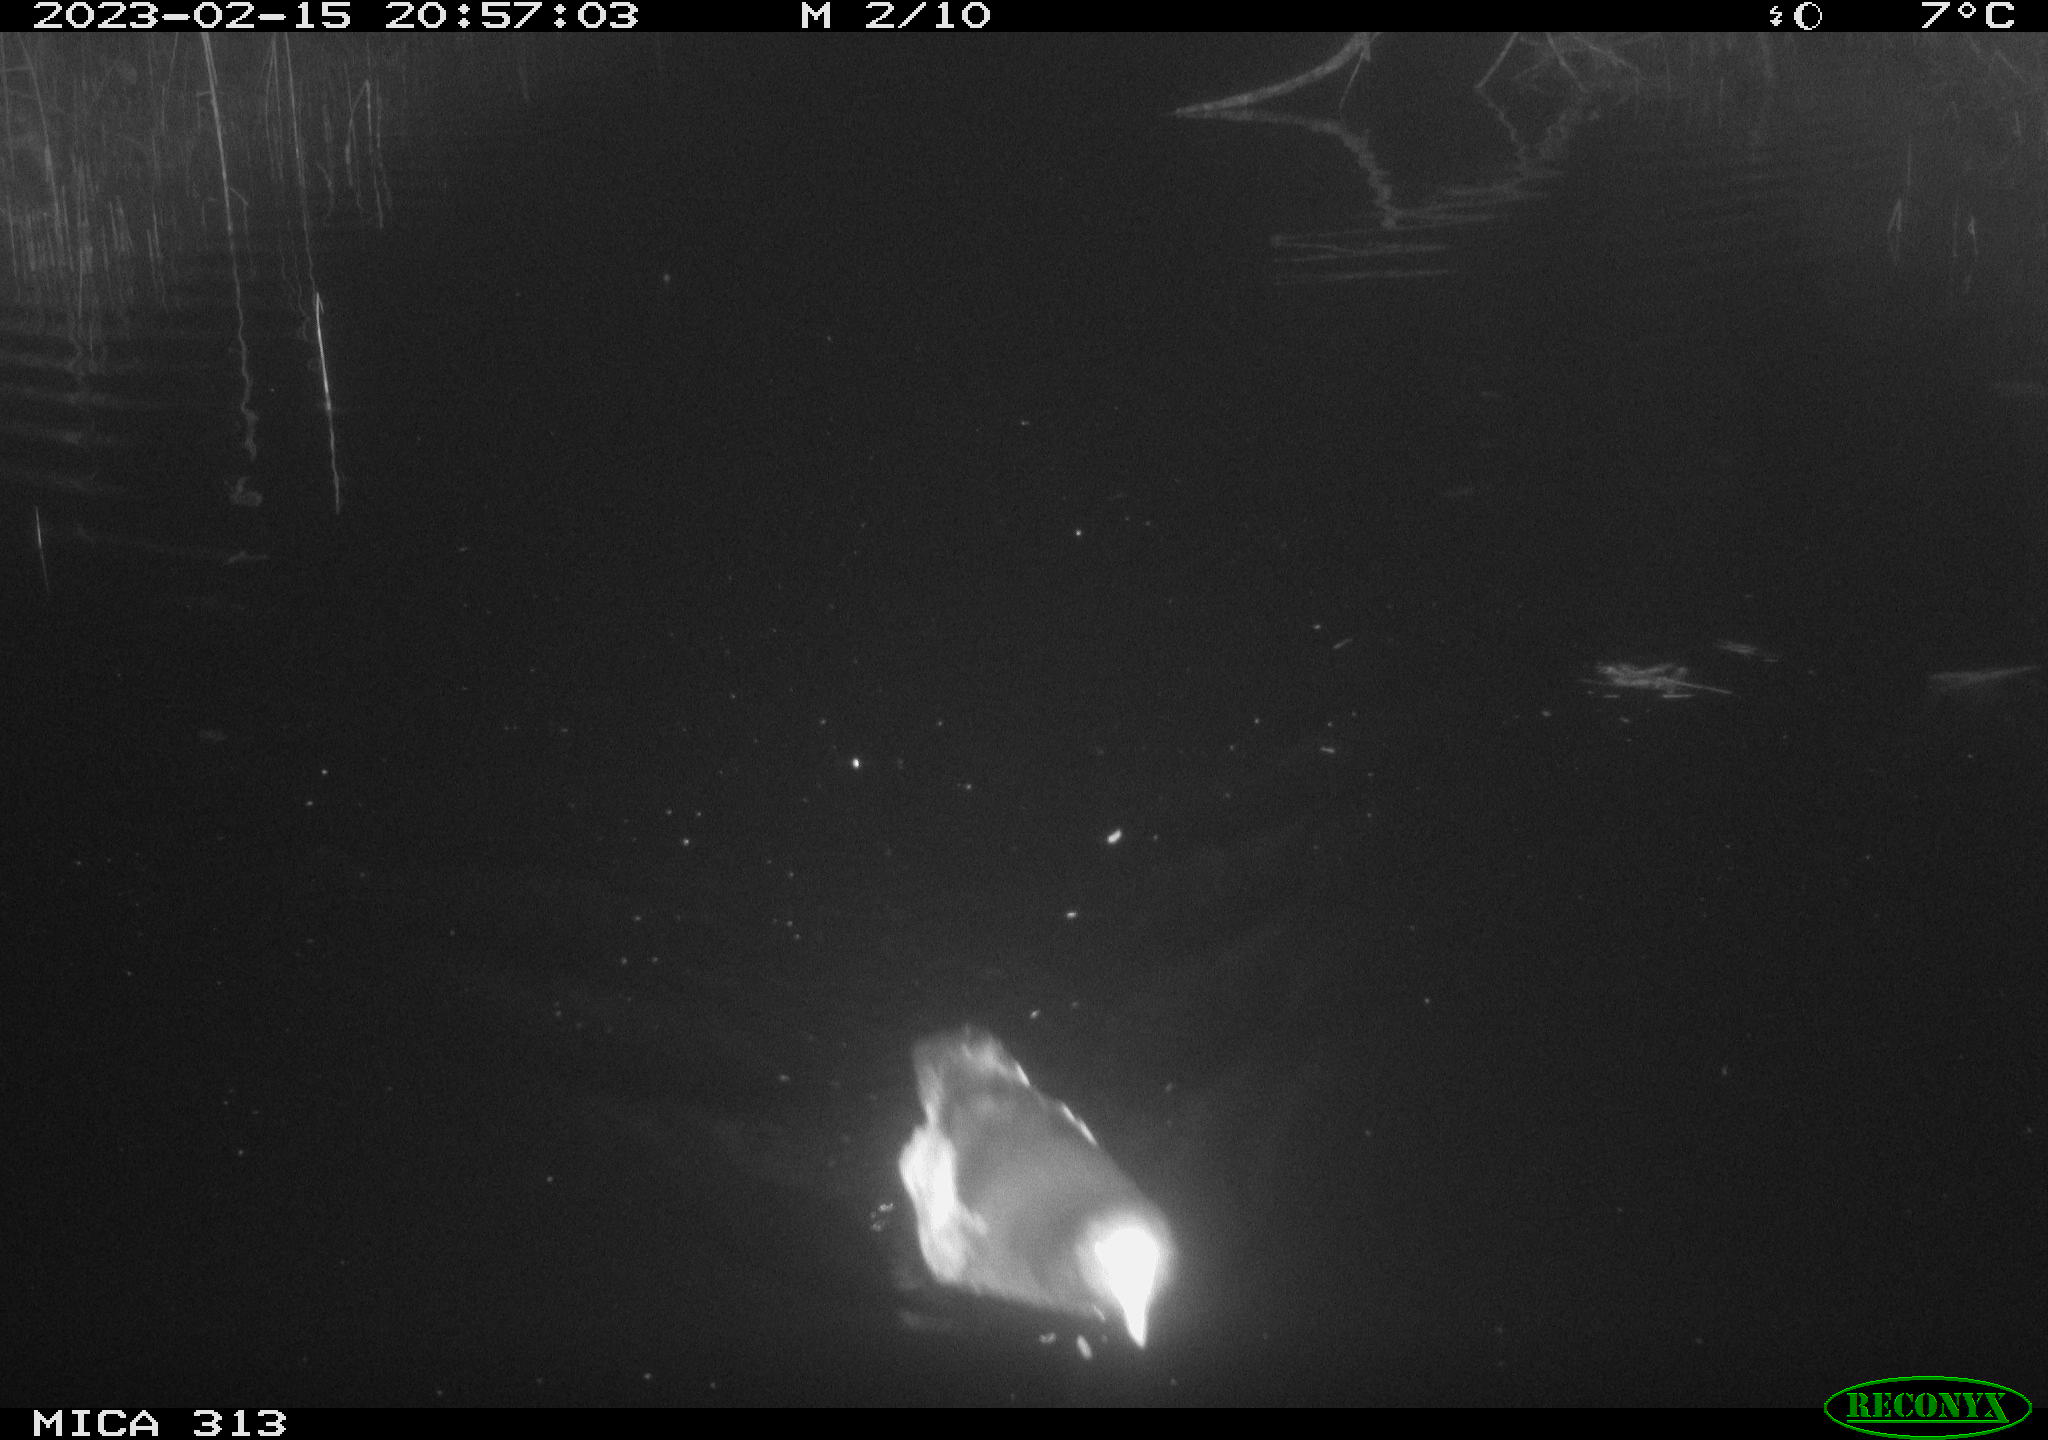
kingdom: Animalia
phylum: Chordata
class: Aves
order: Anseriformes
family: Anatidae
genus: Anas
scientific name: Anas
